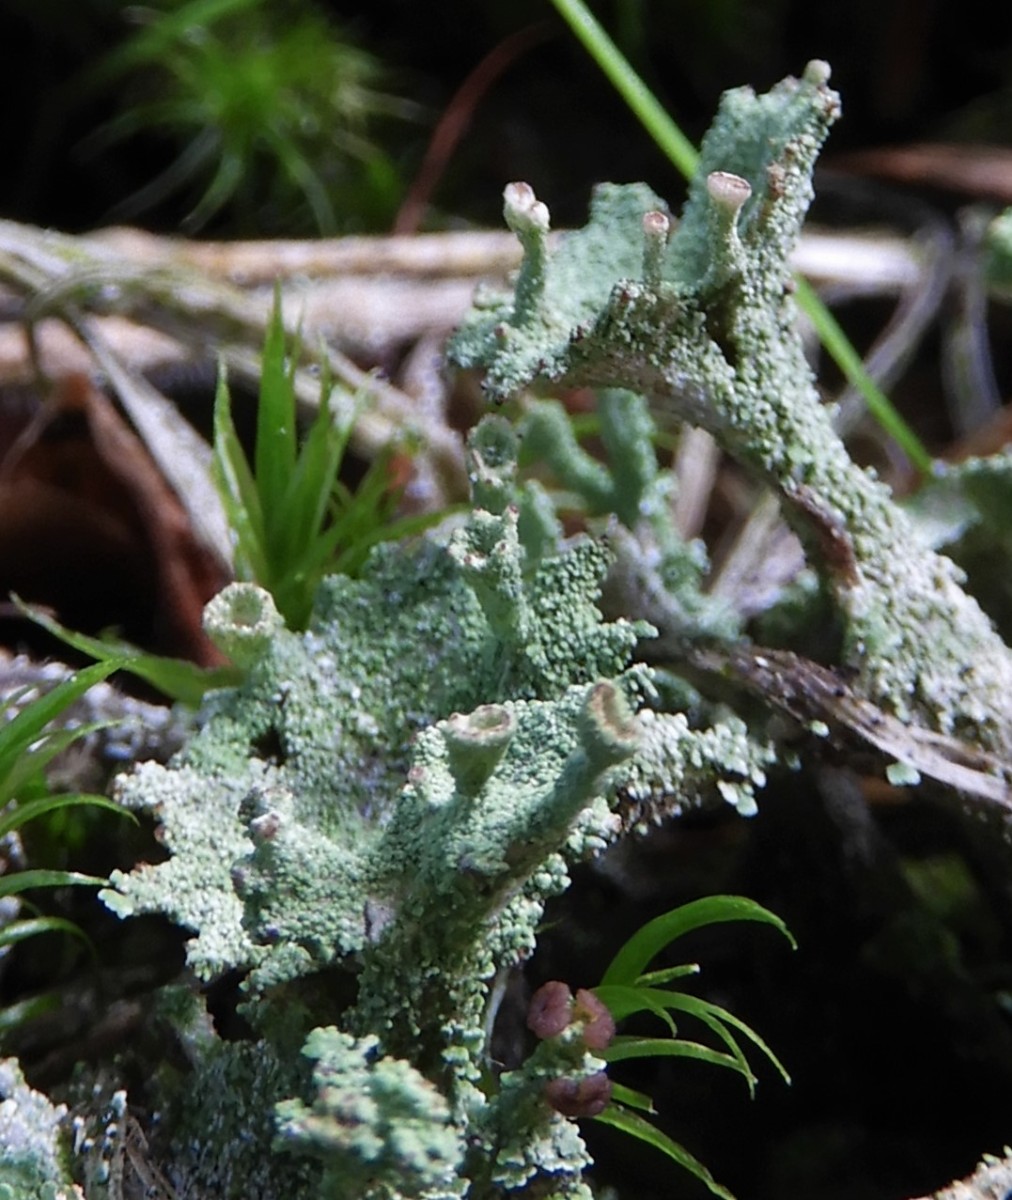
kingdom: Fungi
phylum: Ascomycota
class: Lecanoromycetes
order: Lecanorales
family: Cladoniaceae
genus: Cladonia
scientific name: Cladonia
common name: brungrøn bægerlav
